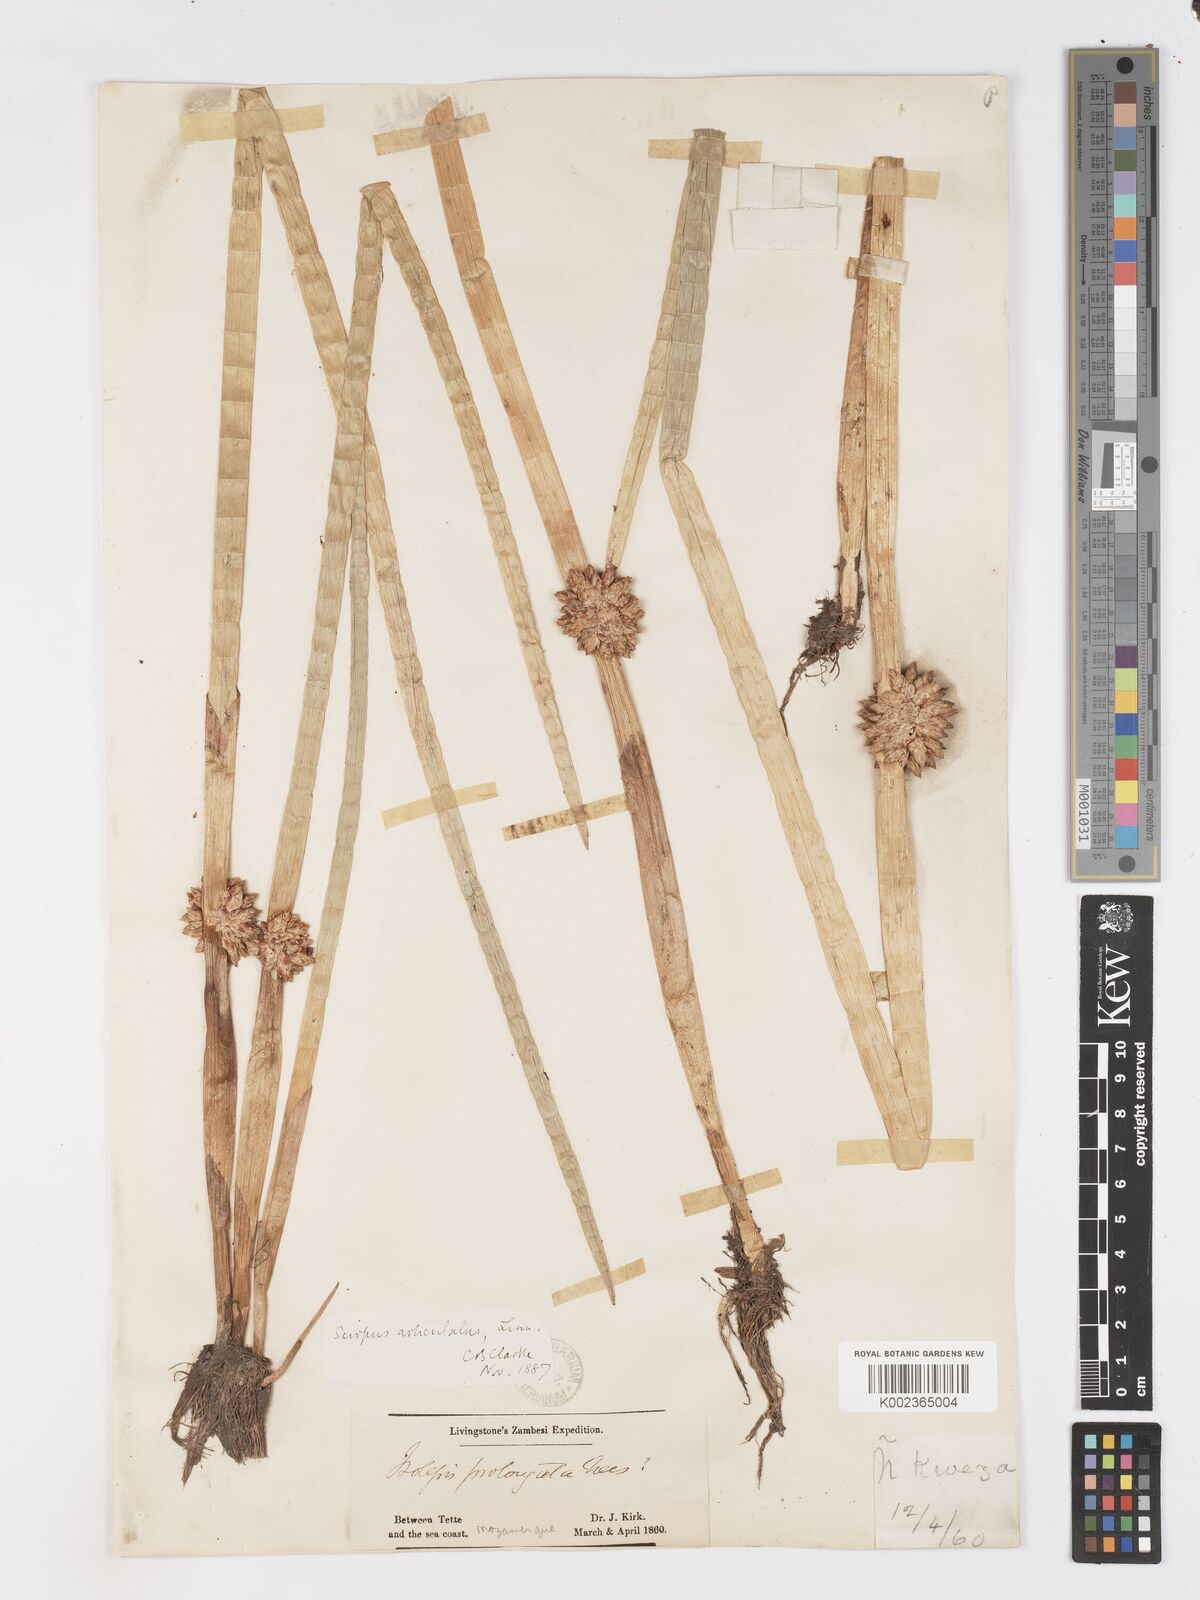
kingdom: Plantae
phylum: Tracheophyta
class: Liliopsida
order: Poales
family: Cyperaceae
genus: Schoenoplectiella
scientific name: Schoenoplectiella articulata
